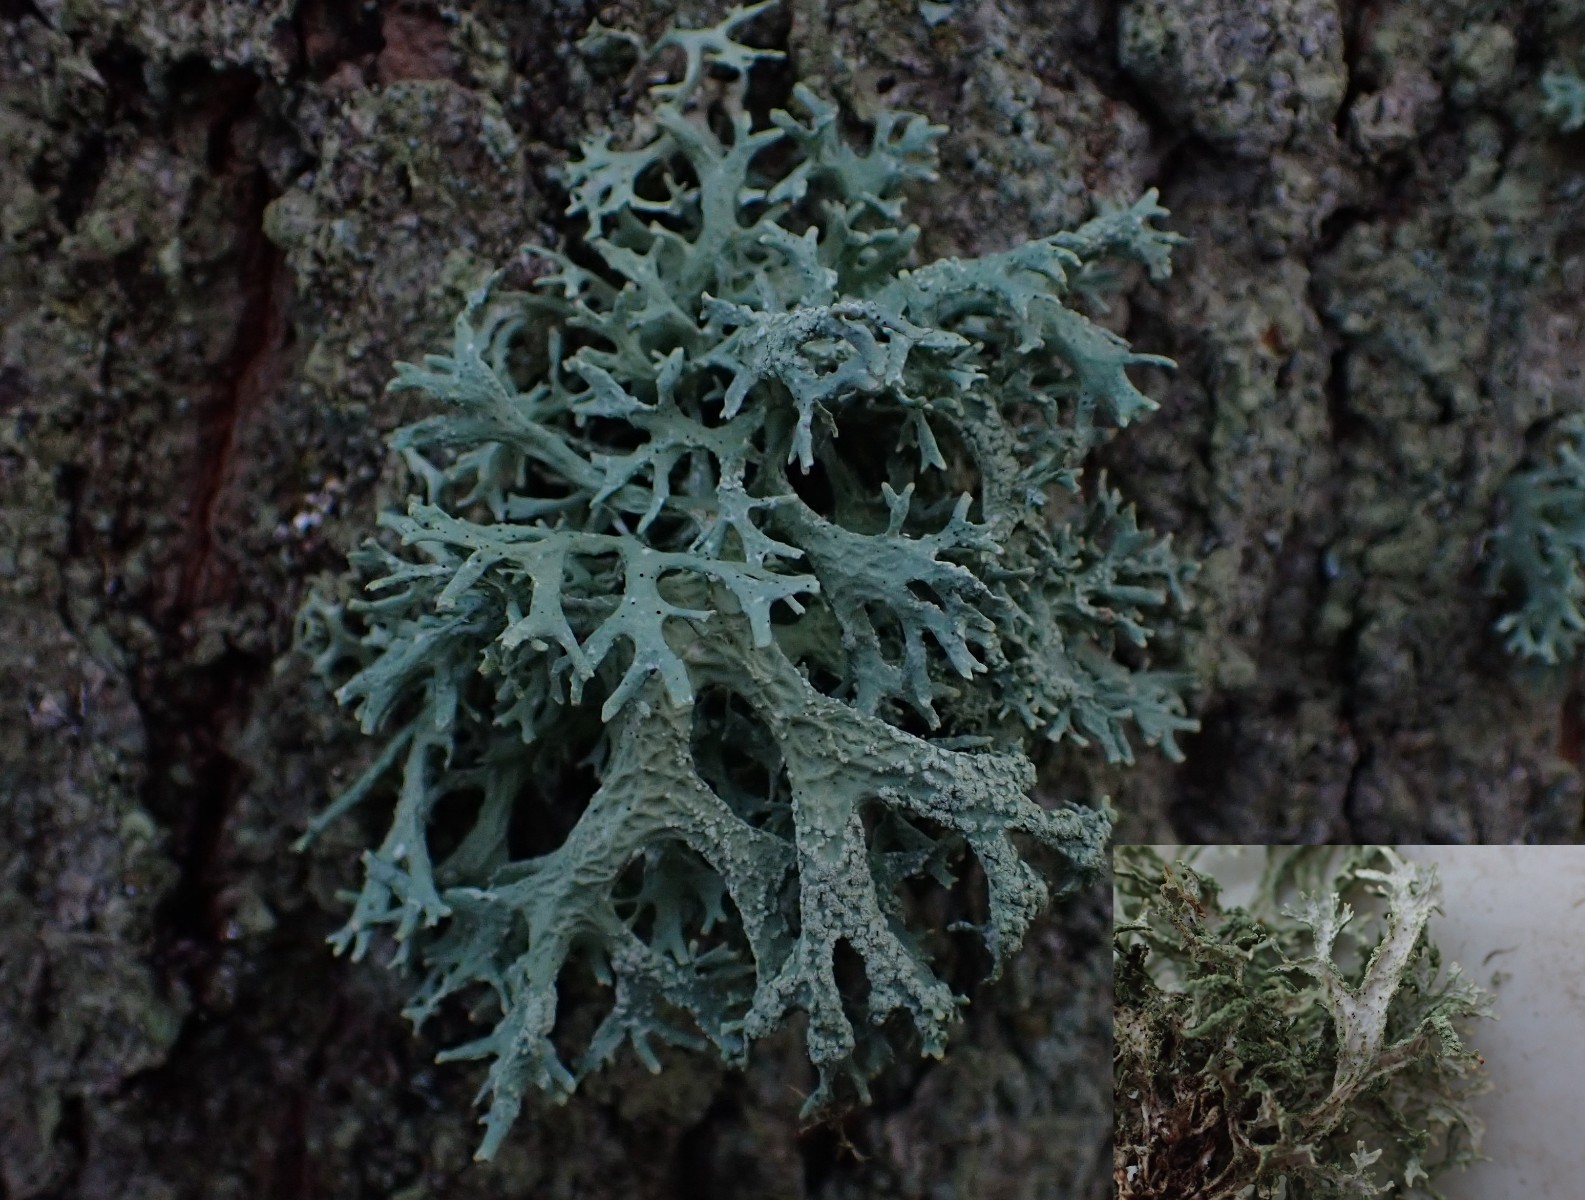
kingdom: Fungi
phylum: Ascomycota
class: Lecanoromycetes
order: Lecanorales
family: Parmeliaceae
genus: Evernia
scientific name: Evernia prunastri
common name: almindelig slåenlav
